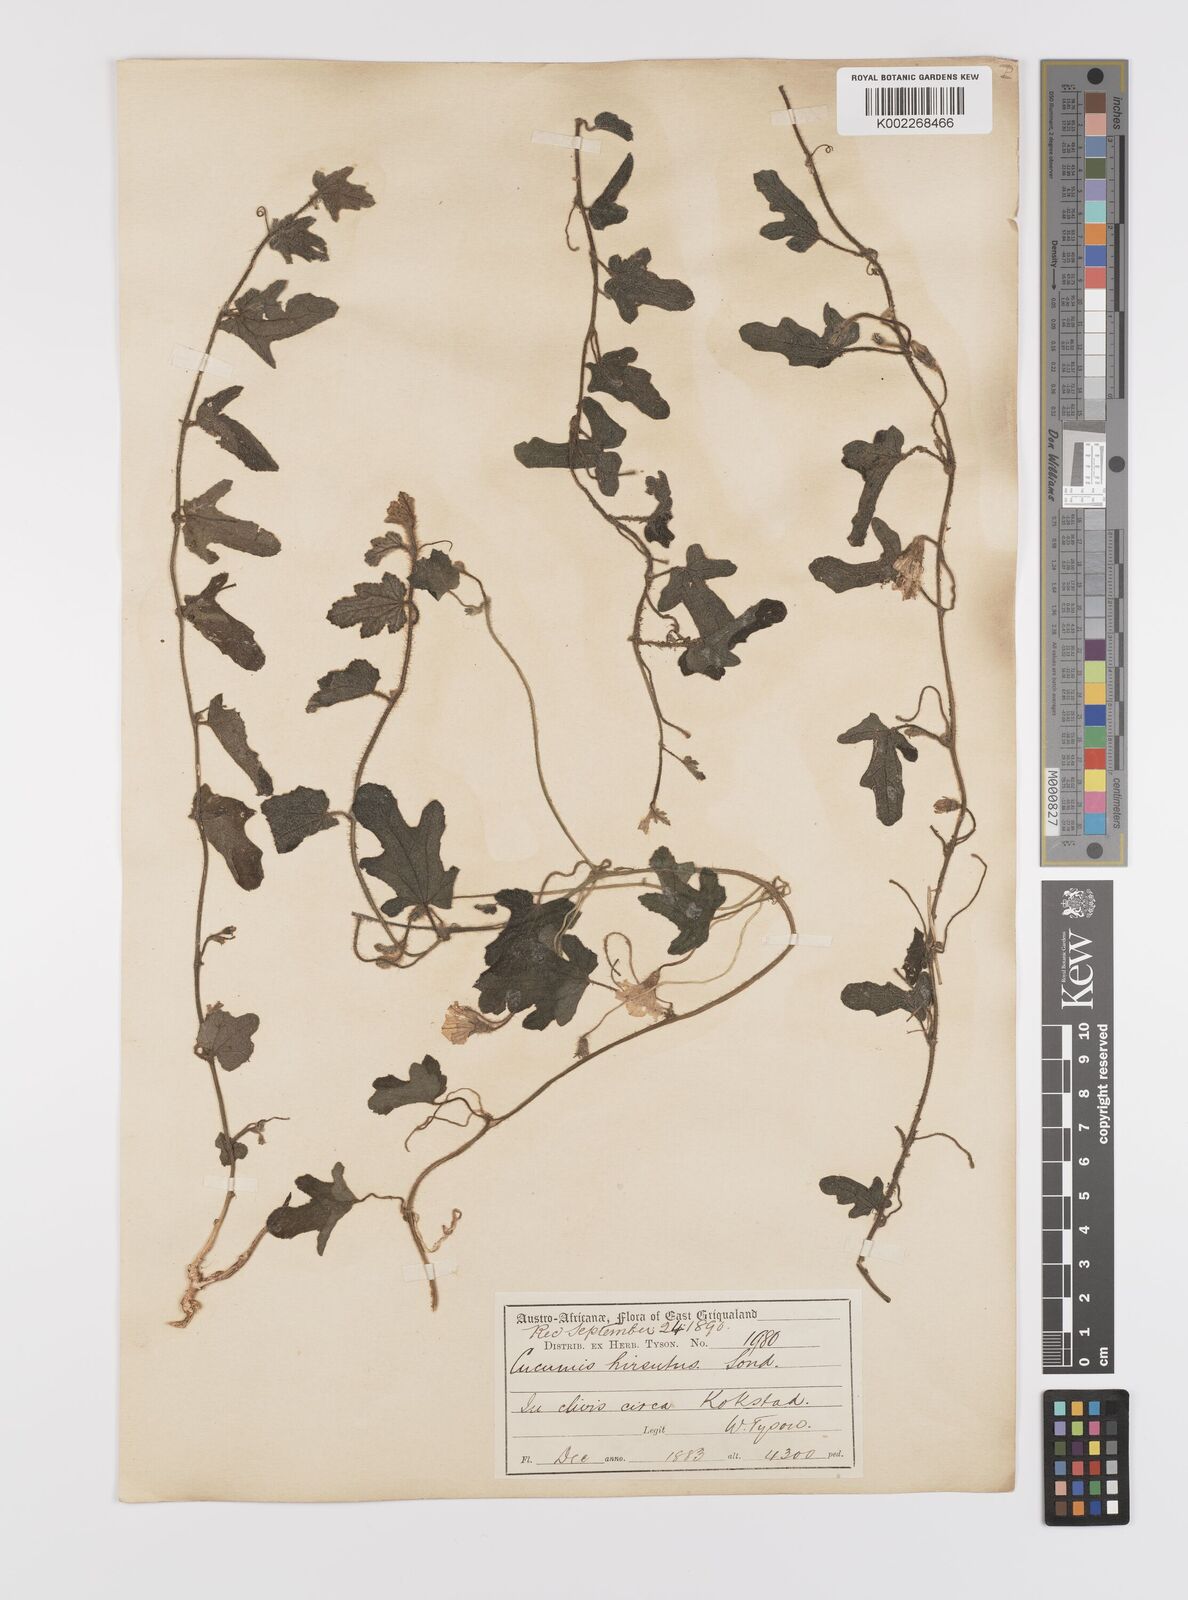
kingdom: Plantae
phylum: Tracheophyta
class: Magnoliopsida
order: Cucurbitales
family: Cucurbitaceae
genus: Cucumis
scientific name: Cucumis hirsutus
